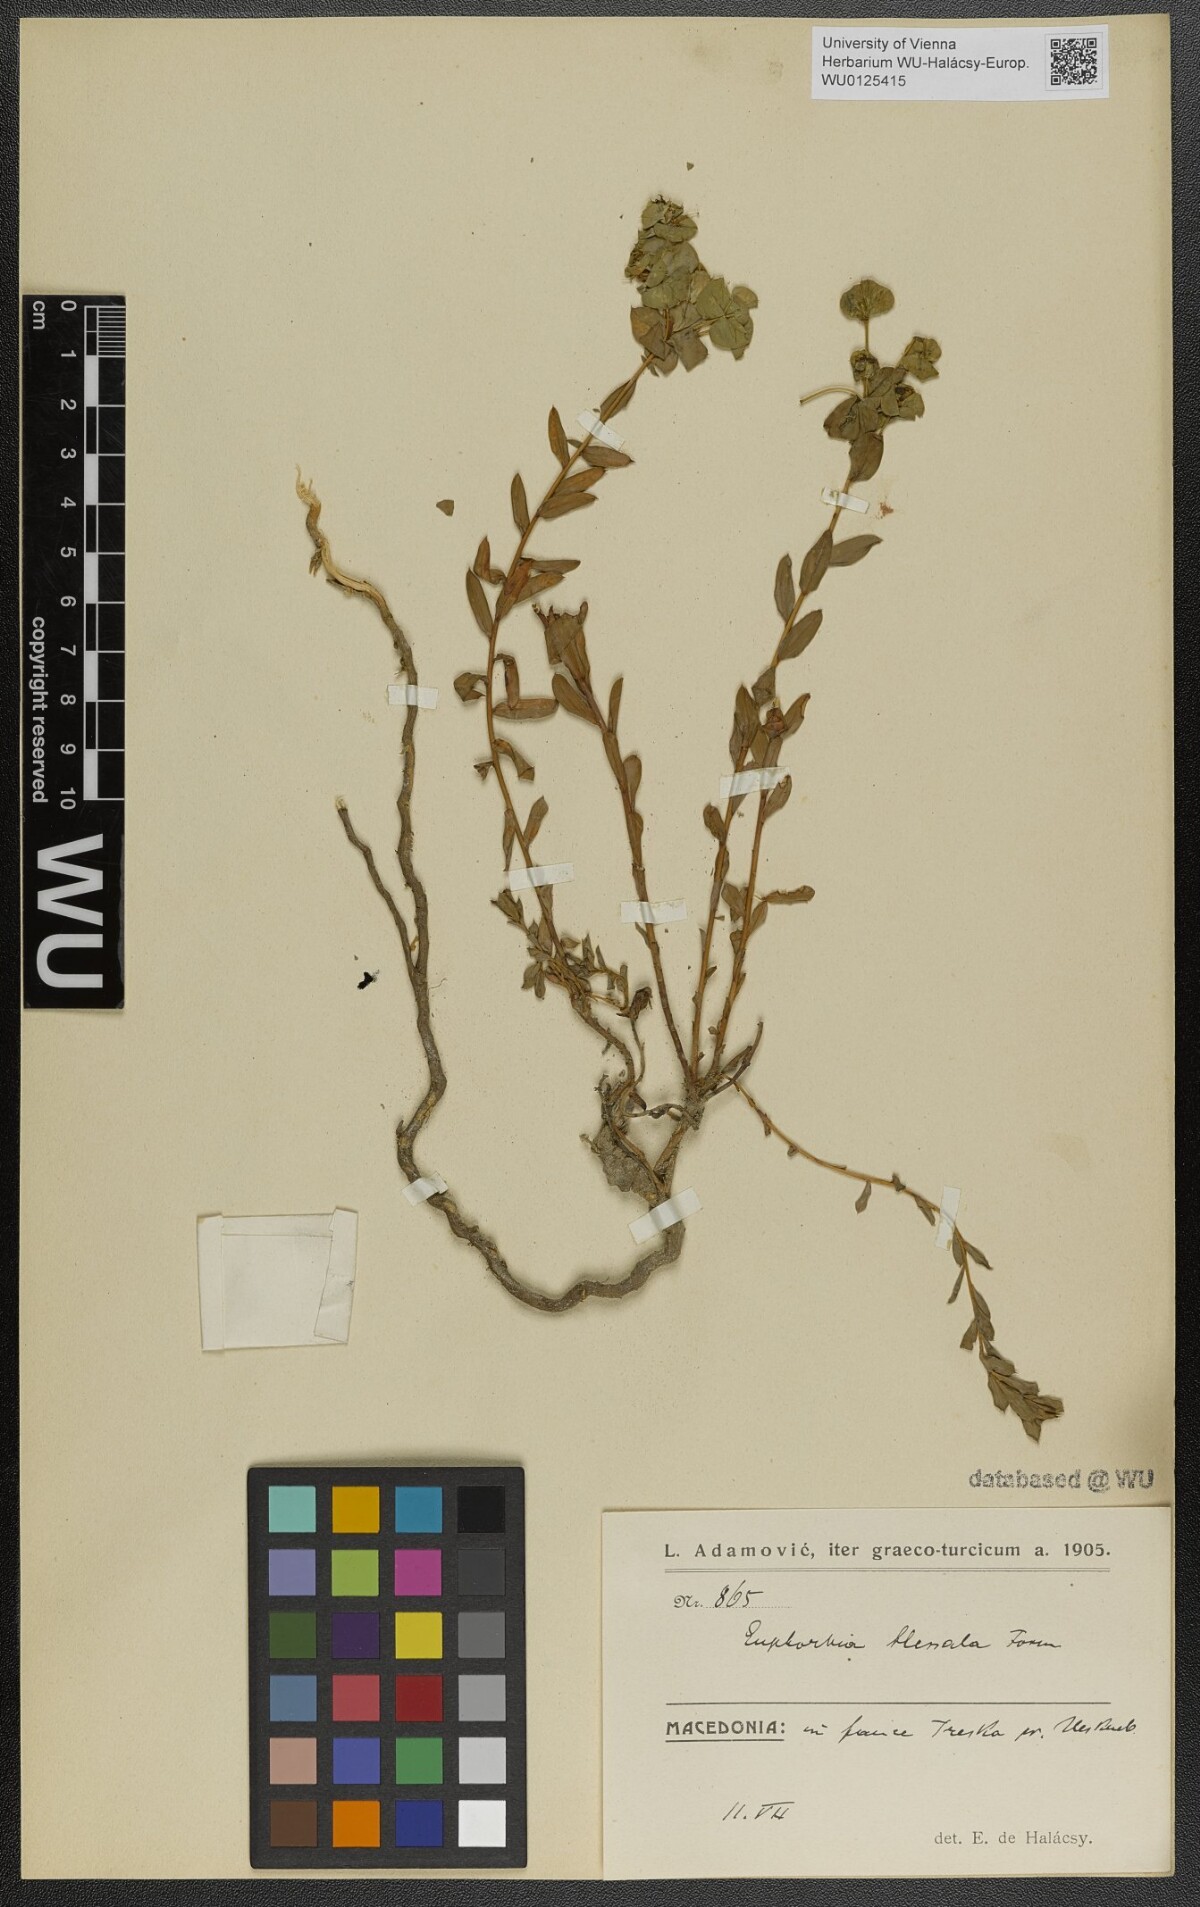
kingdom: Plantae
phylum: Tracheophyta
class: Magnoliopsida
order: Malpighiales
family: Euphorbiaceae
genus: Euphorbia
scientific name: Euphorbia barrelieri
